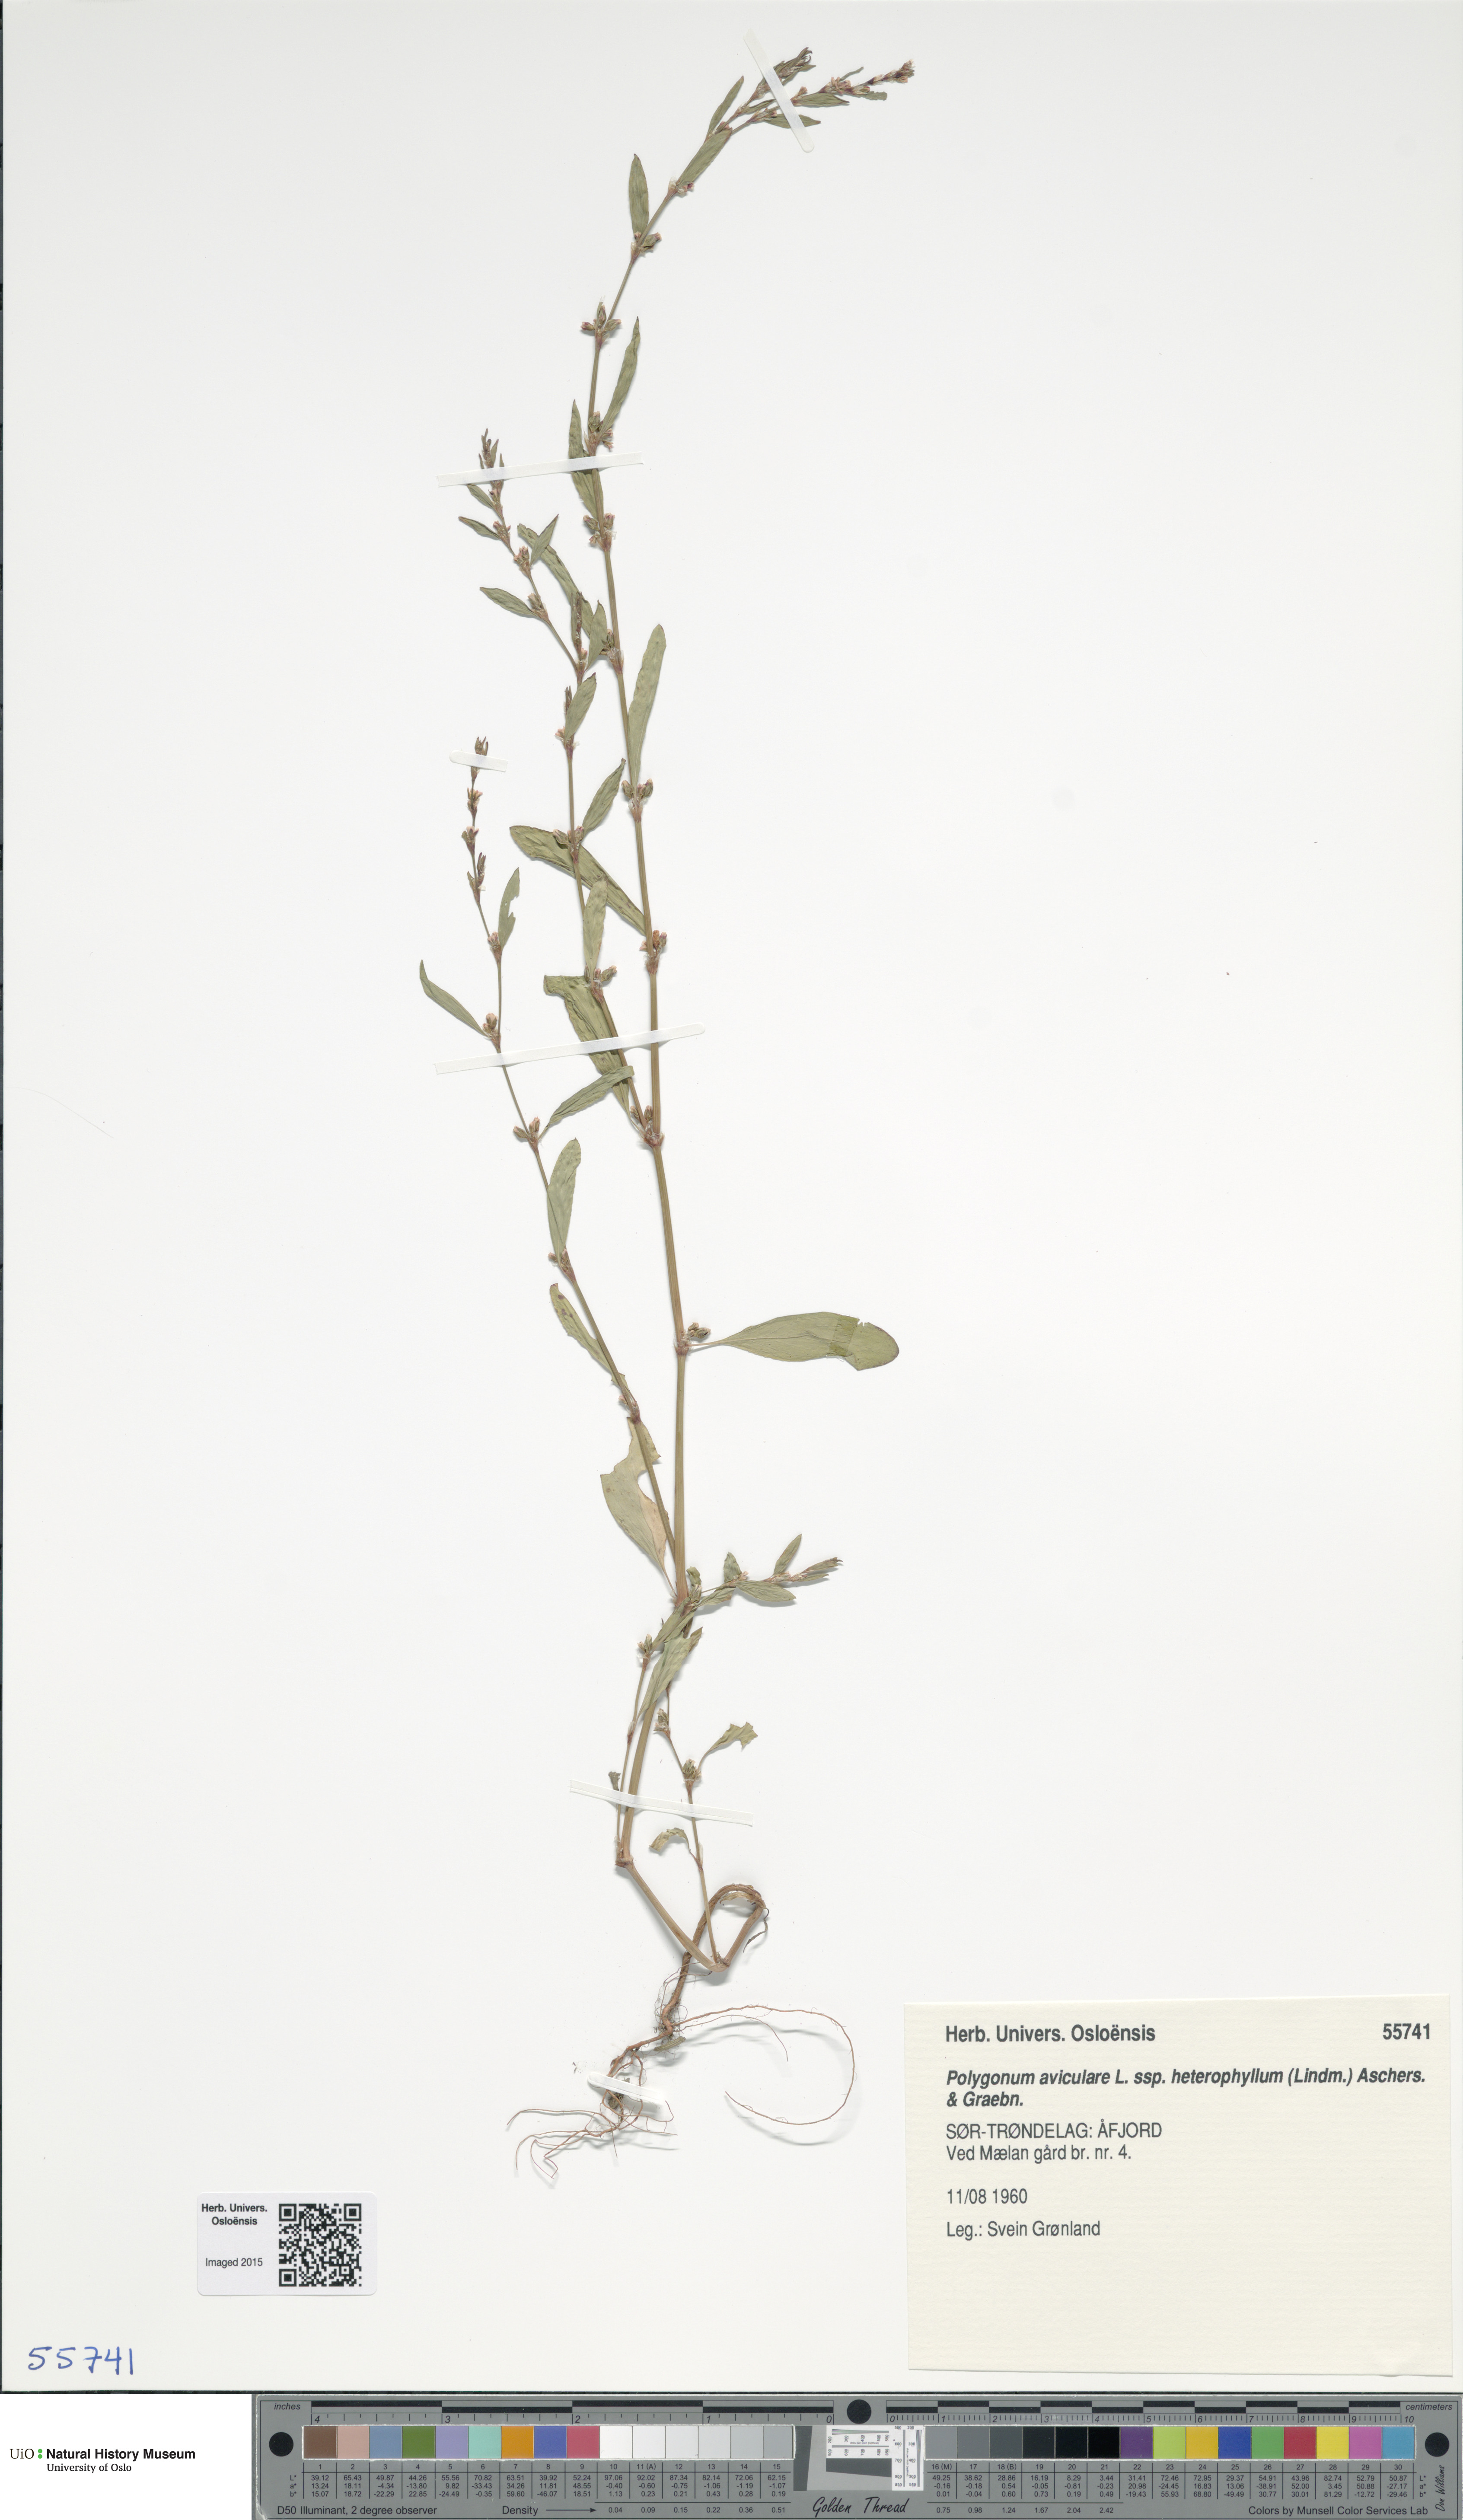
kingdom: Plantae
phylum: Tracheophyta
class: Magnoliopsida
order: Caryophyllales
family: Polygonaceae
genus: Polygonum
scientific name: Polygonum aviculare
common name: Prostrate knotweed
